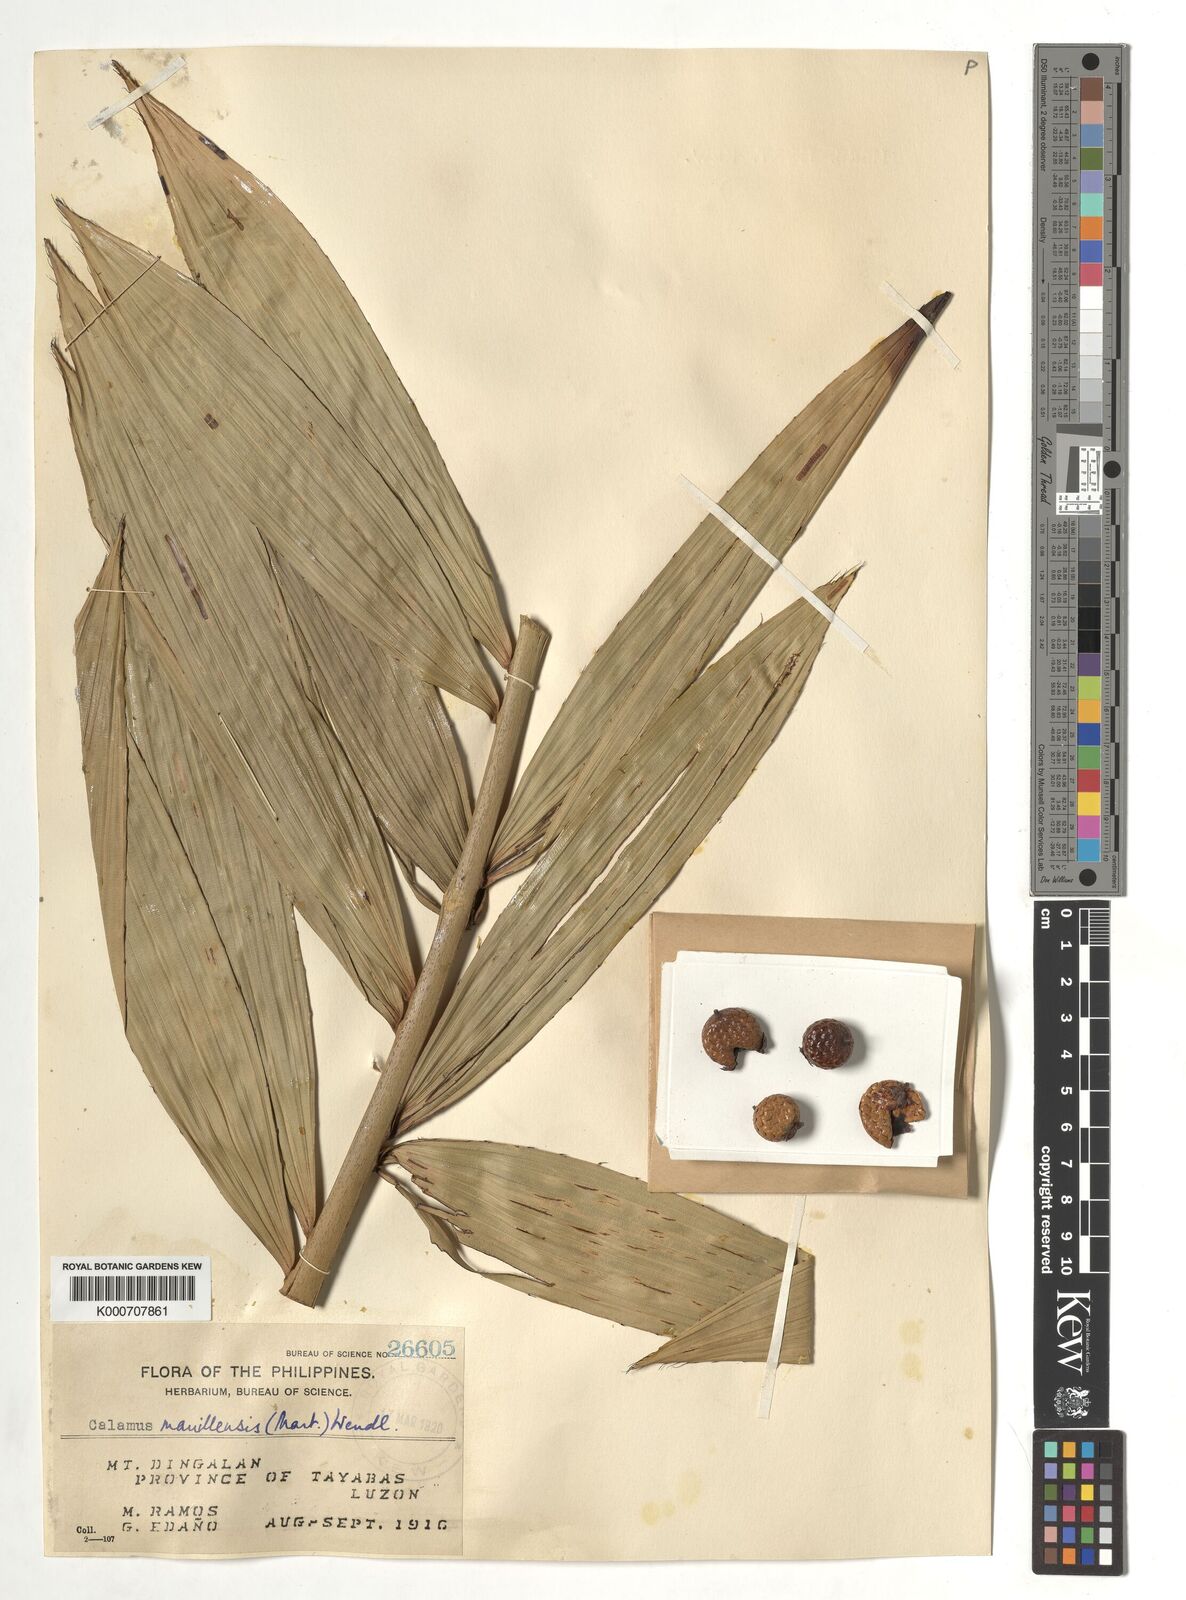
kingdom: Plantae
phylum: Tracheophyta
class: Liliopsida
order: Arecales
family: Arecaceae
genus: Calamus
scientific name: Calamus manillensis
